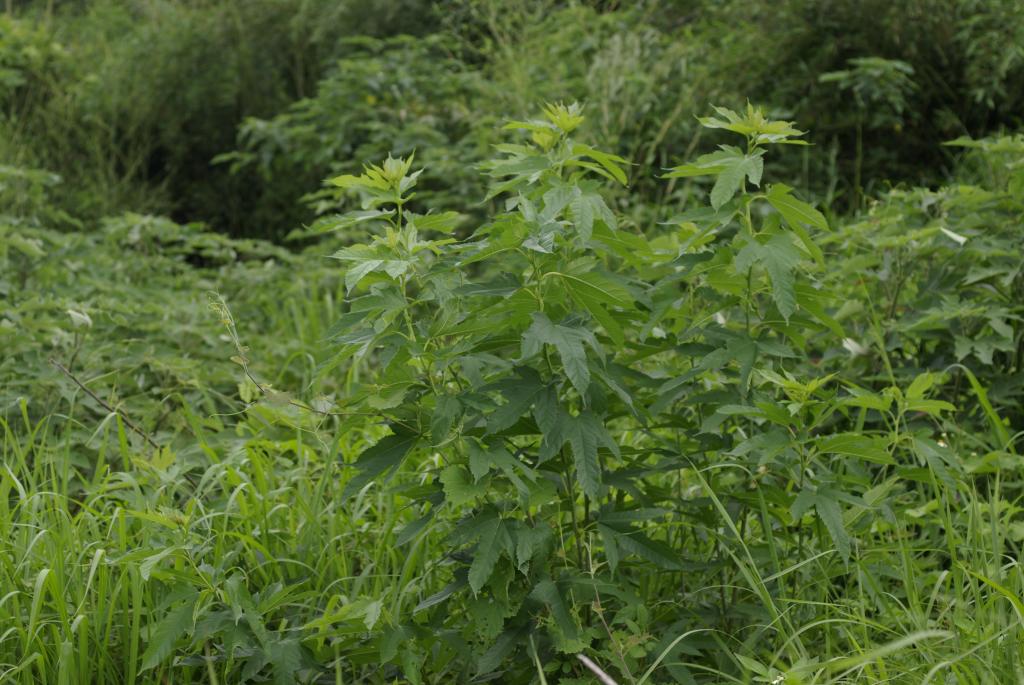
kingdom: Plantae
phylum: Tracheophyta
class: Magnoliopsida
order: Rosales
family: Moraceae
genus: Broussonetia
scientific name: Broussonetia papyrifera
